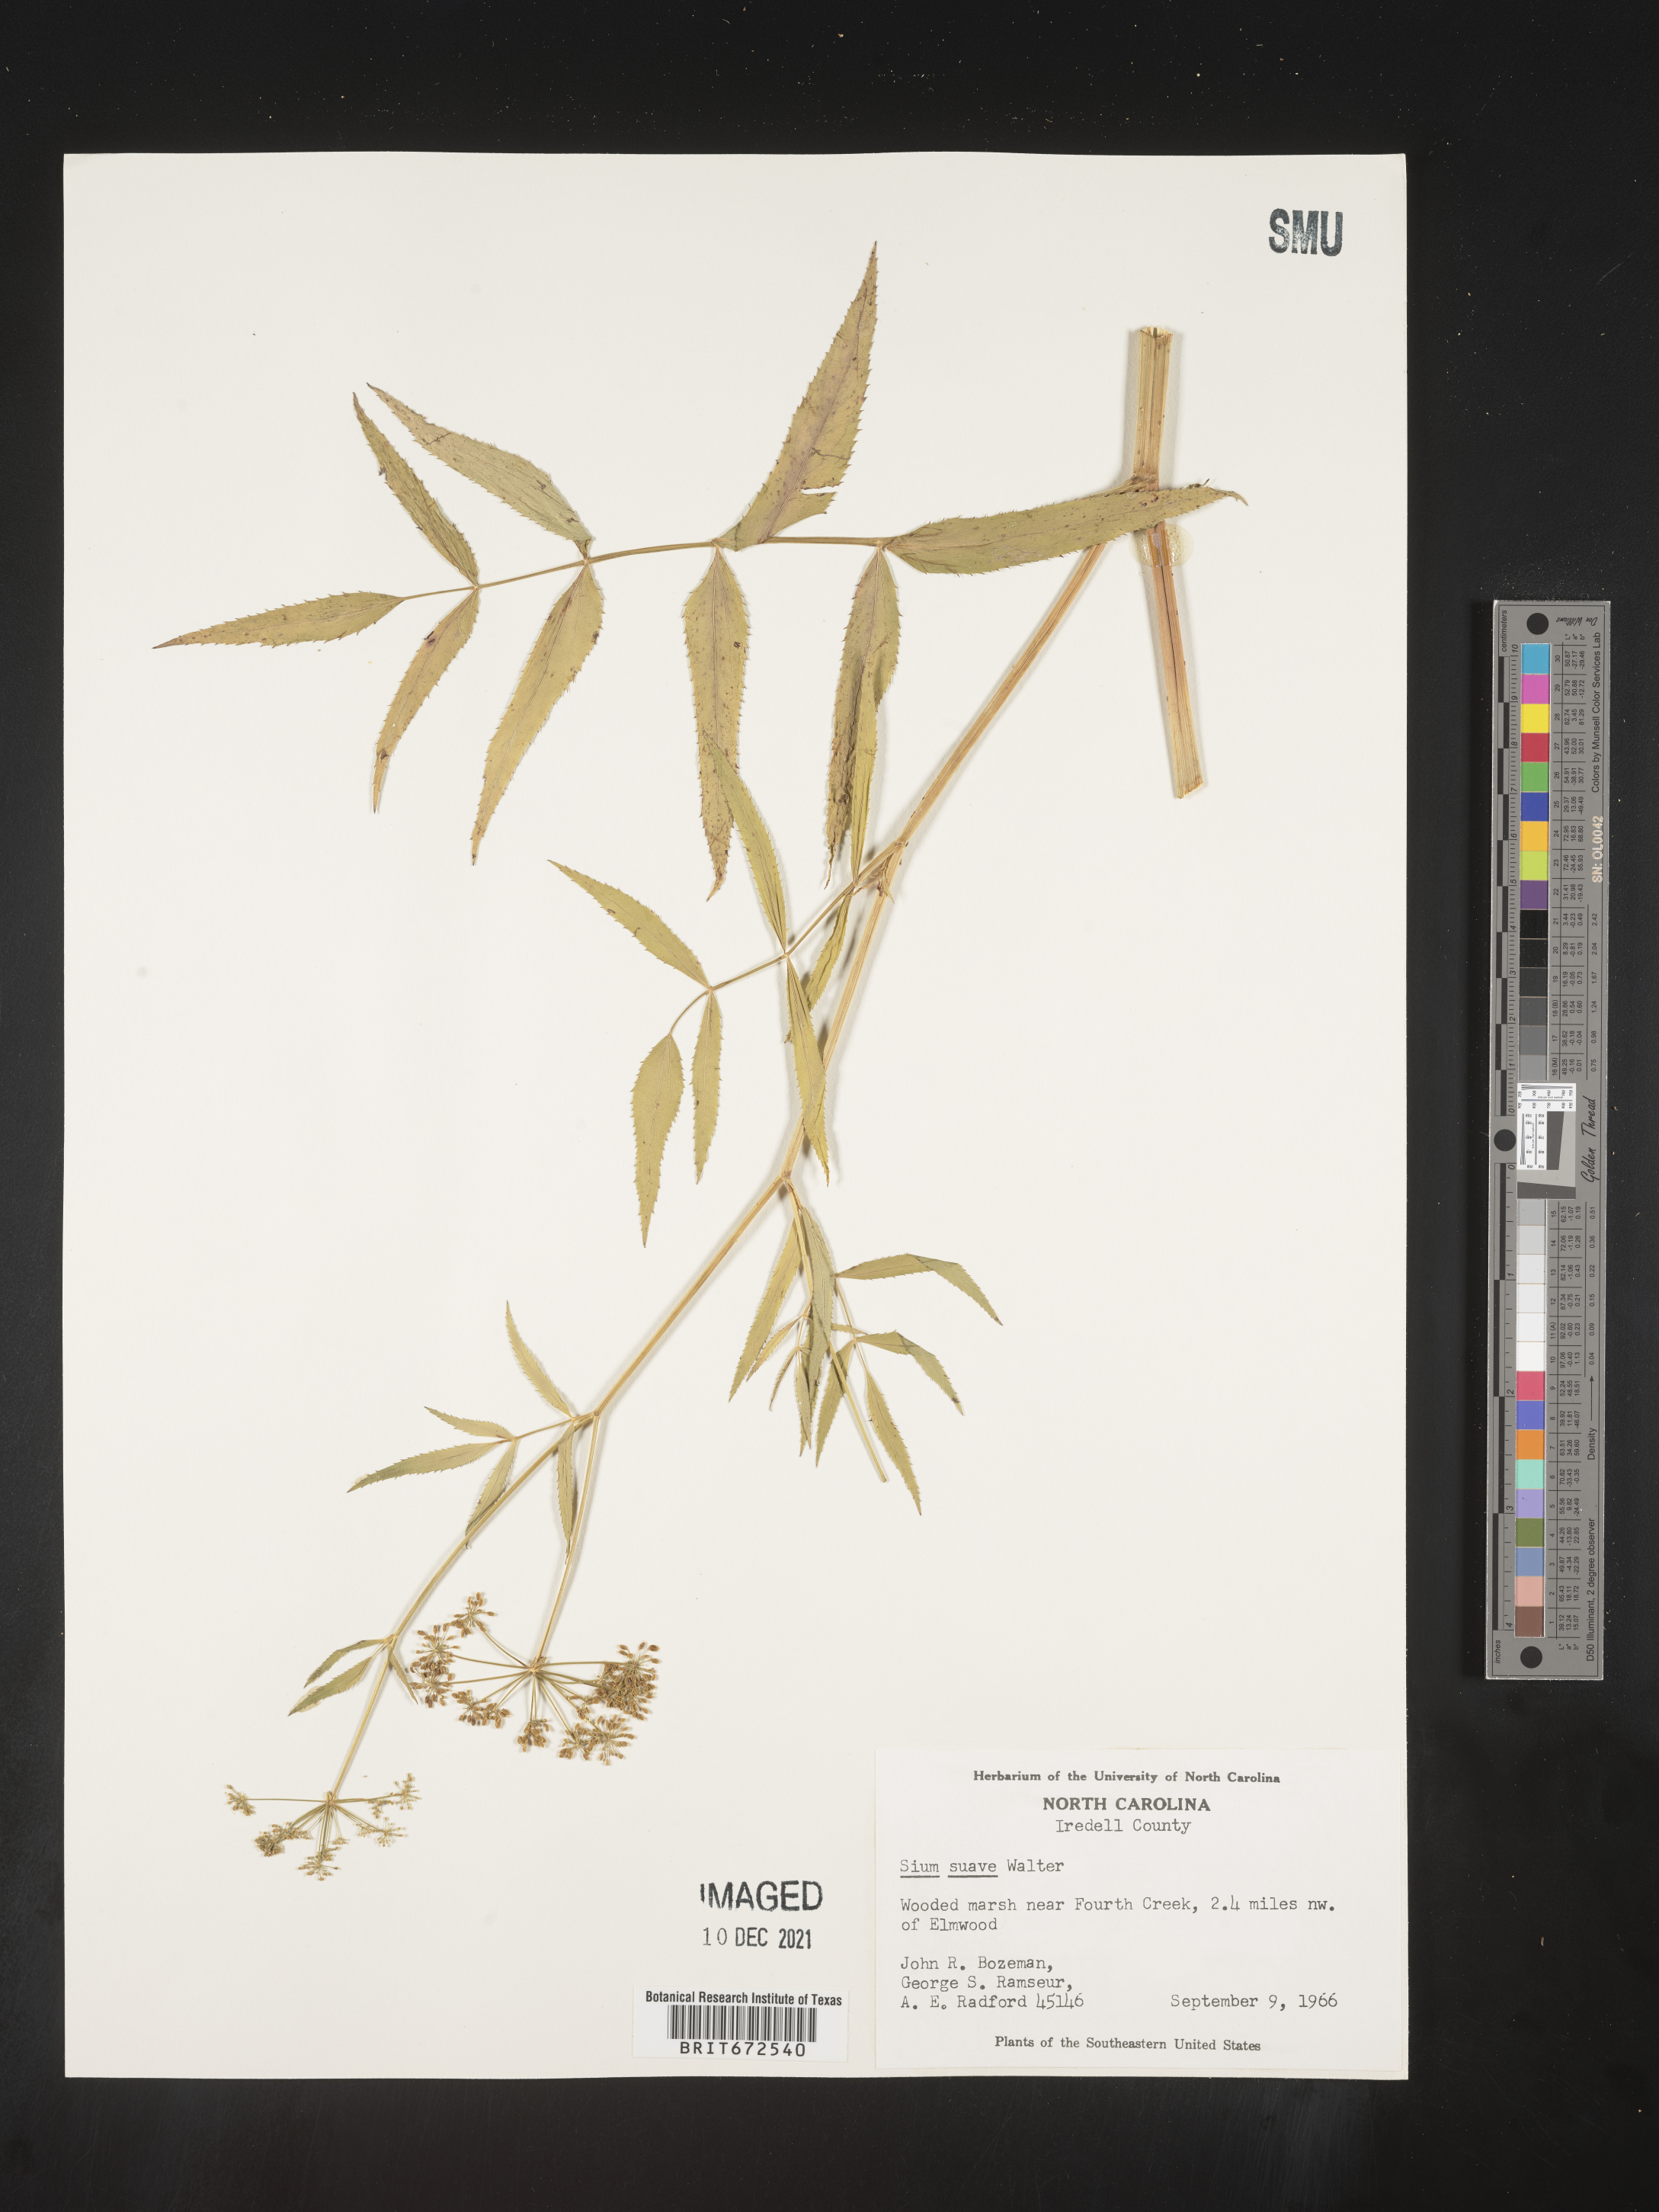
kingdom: Plantae
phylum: Tracheophyta
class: Magnoliopsida
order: Apiales
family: Apiaceae
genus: Sium
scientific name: Sium suave
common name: Hemlock water-parsnip
